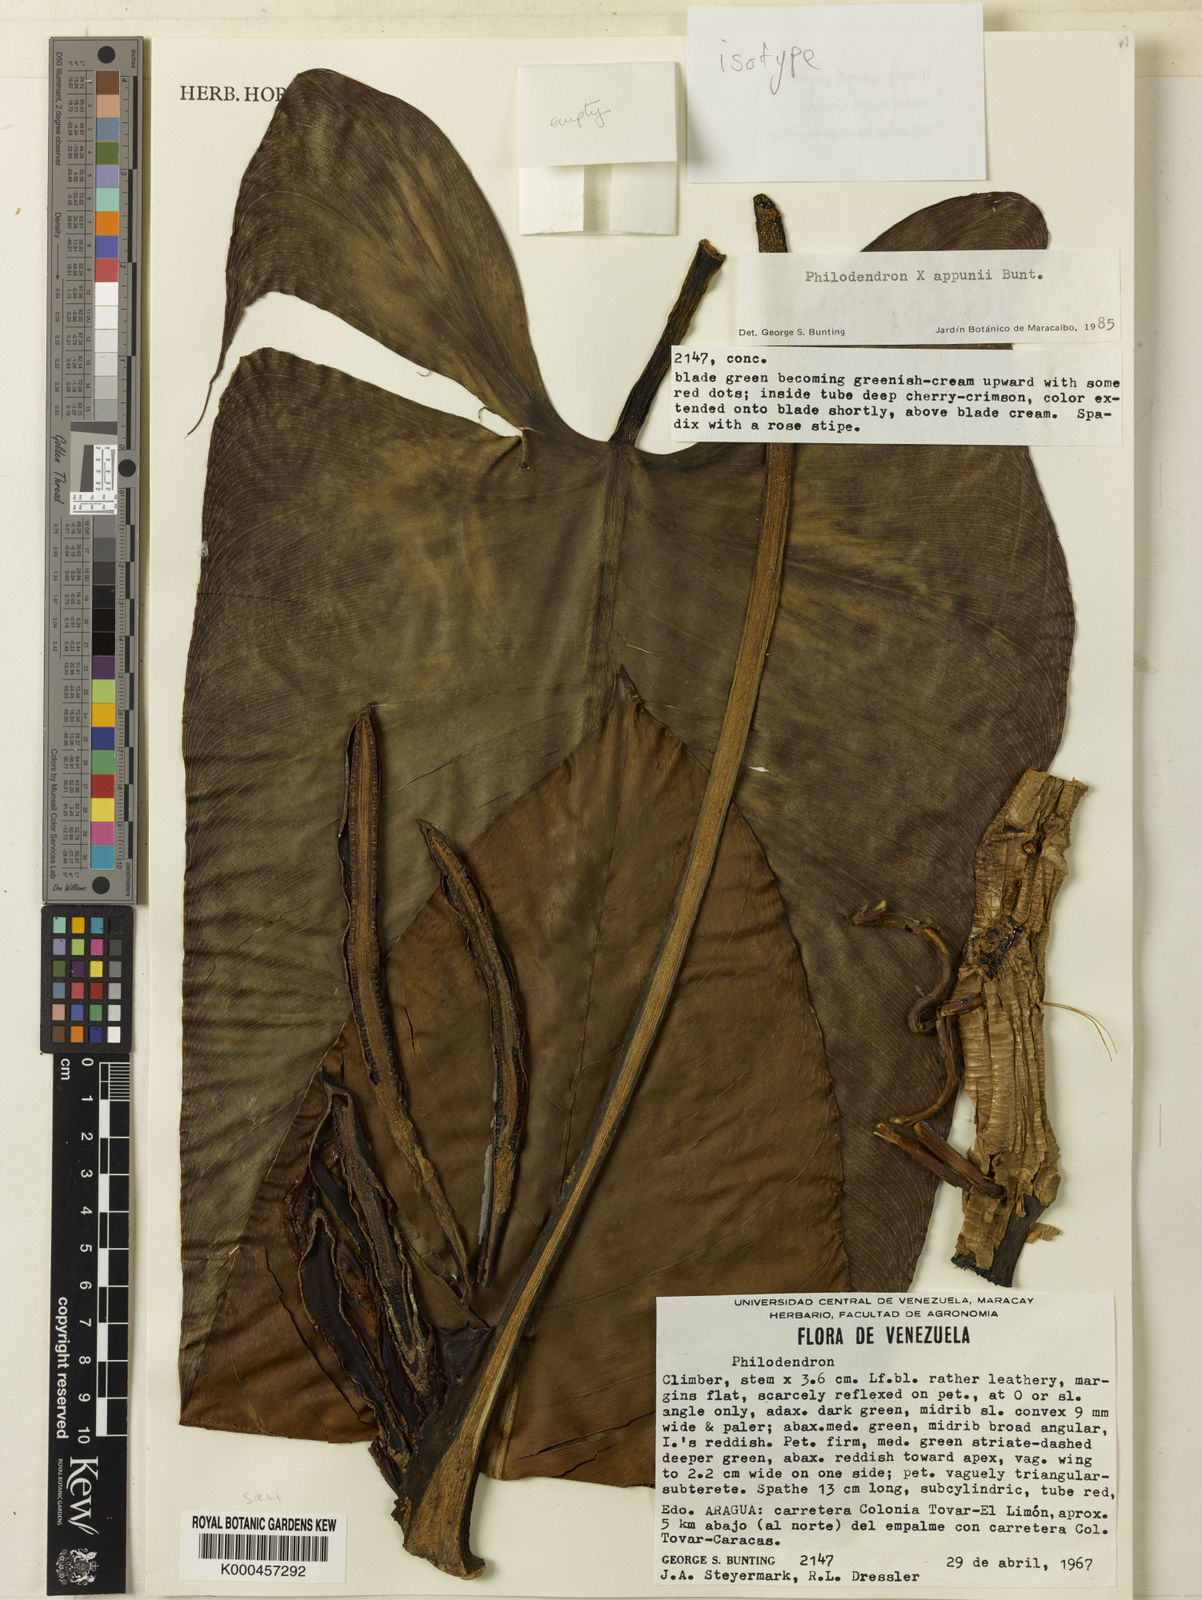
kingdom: Plantae
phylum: Tracheophyta
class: Liliopsida
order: Alismatales
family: Araceae
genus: Philodendron
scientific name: Philodendron appunii
